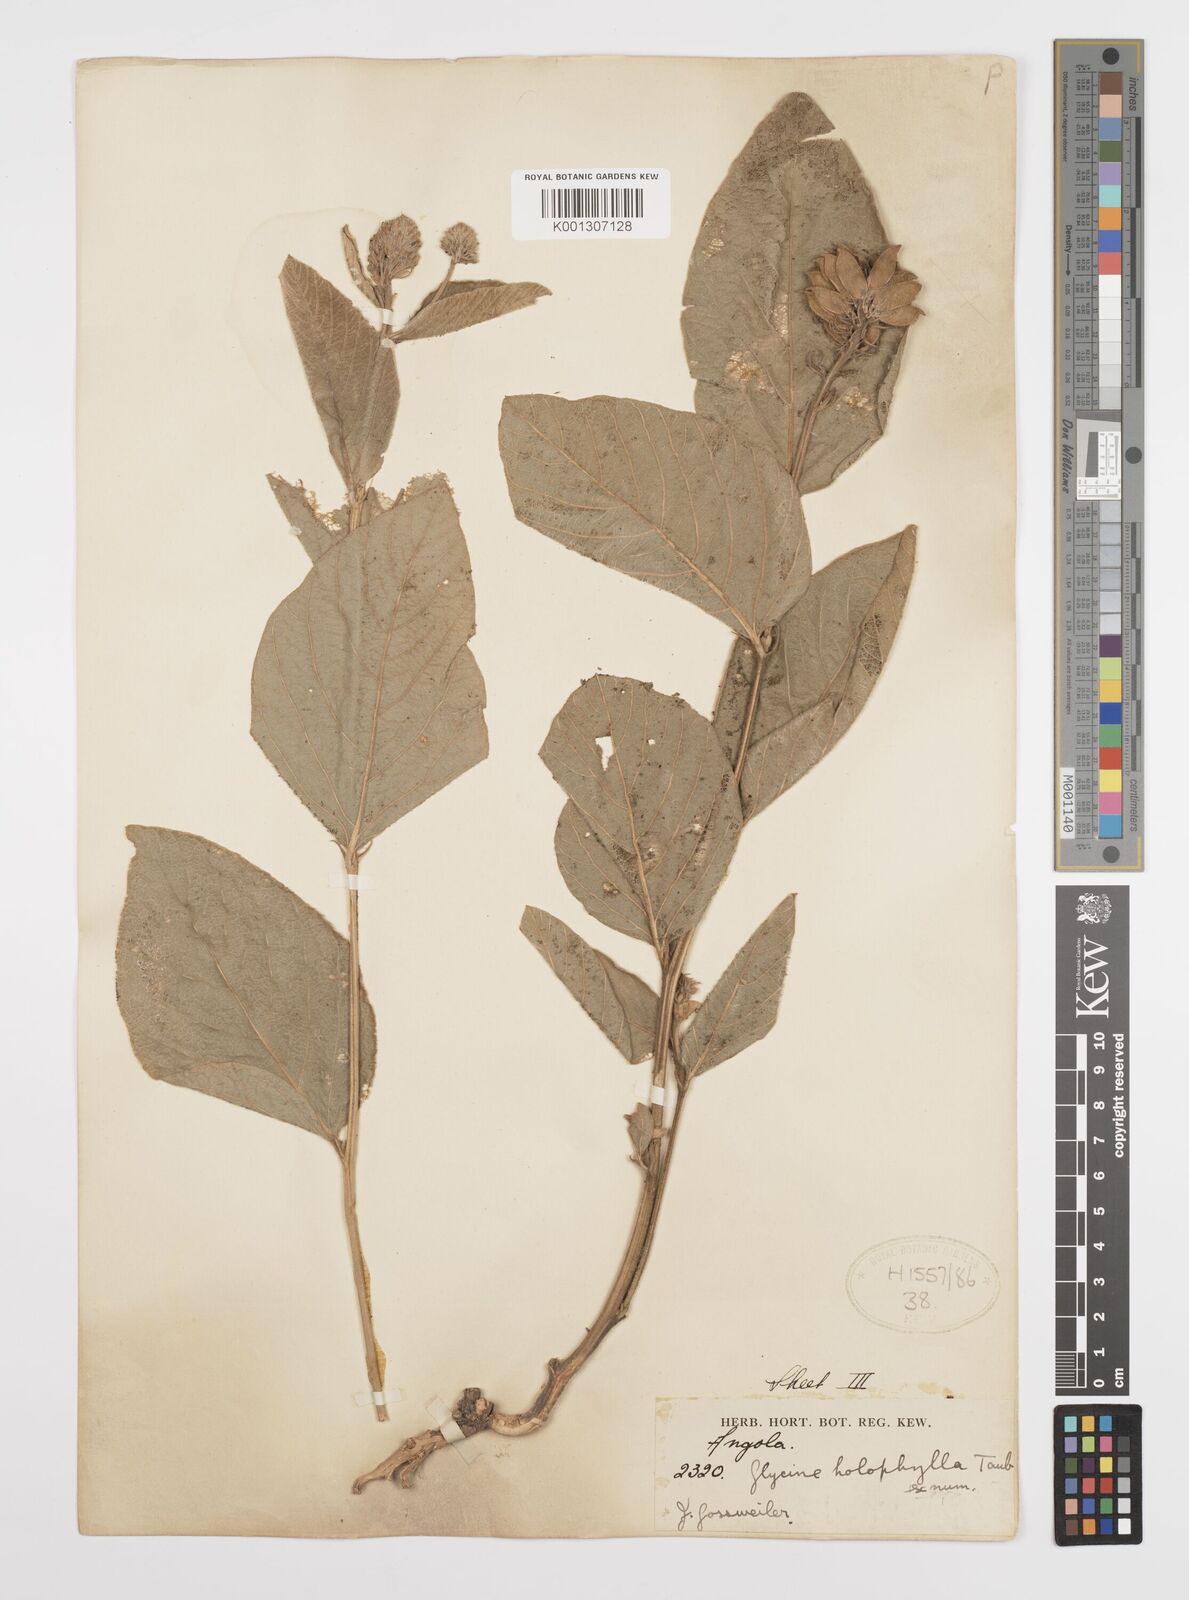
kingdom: Plantae
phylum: Tracheophyta
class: Magnoliopsida
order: Fabales
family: Fabaceae
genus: Pseudoeriosema
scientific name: Pseudoeriosema andongense
